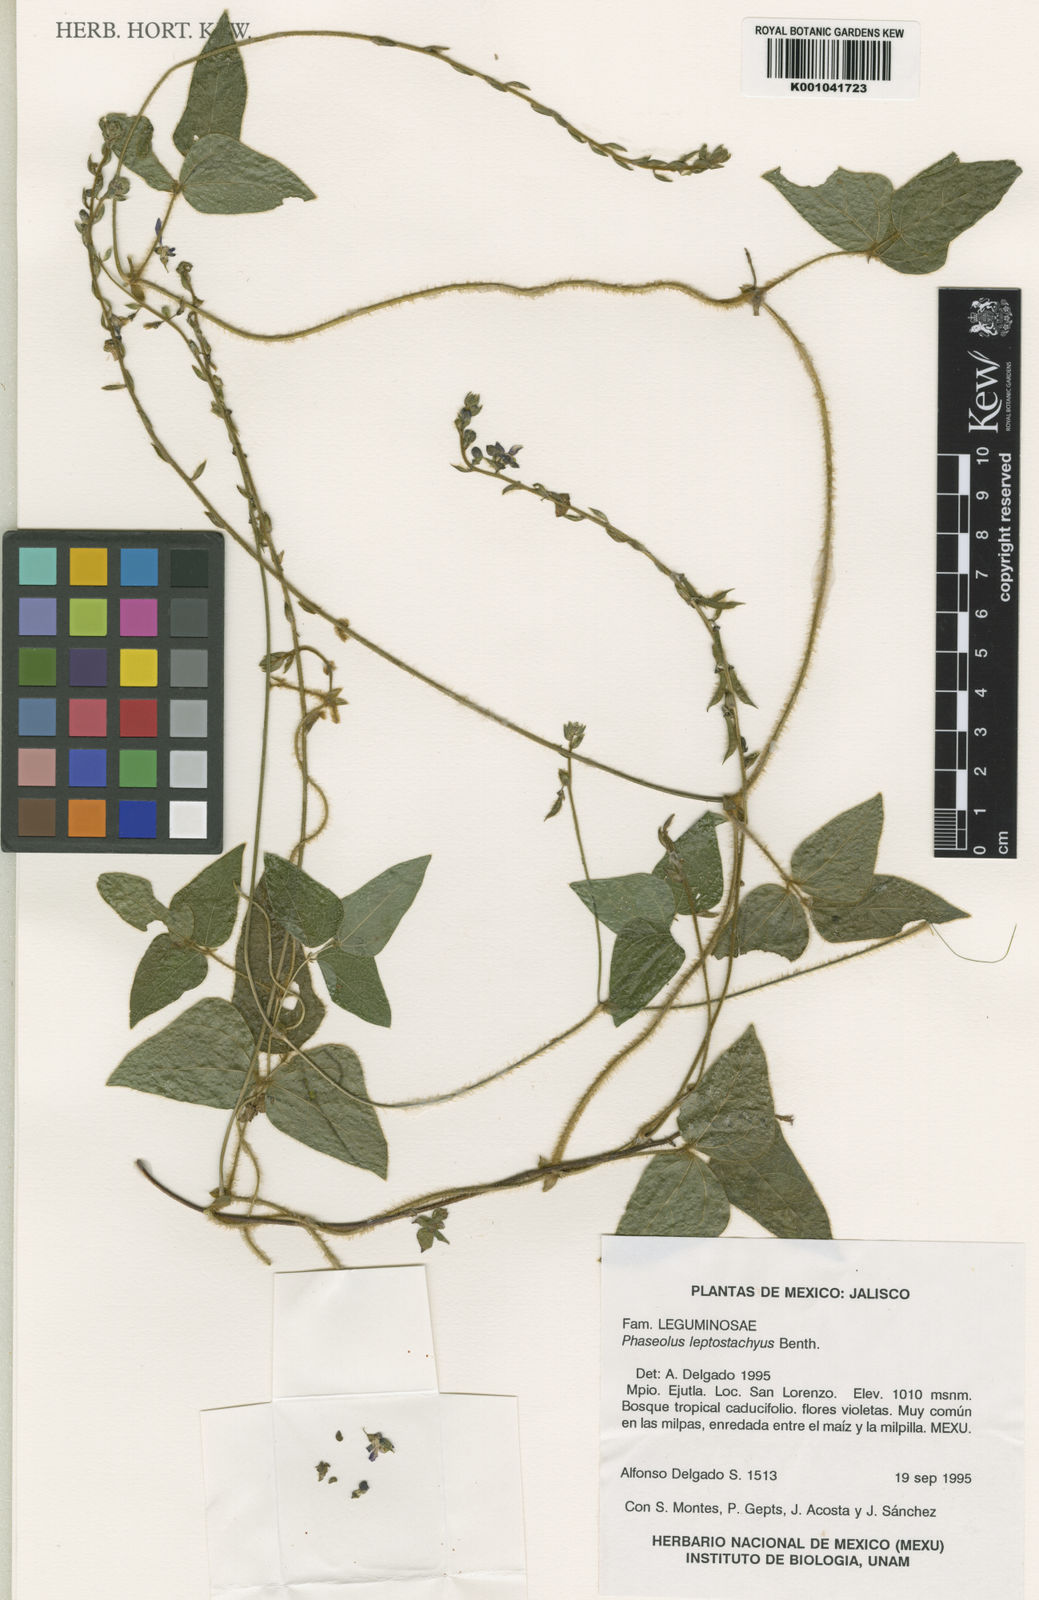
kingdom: Plantae
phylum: Tracheophyta
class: Magnoliopsida
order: Fabales
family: Fabaceae
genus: Phaseolus
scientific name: Phaseolus leptostachyus
